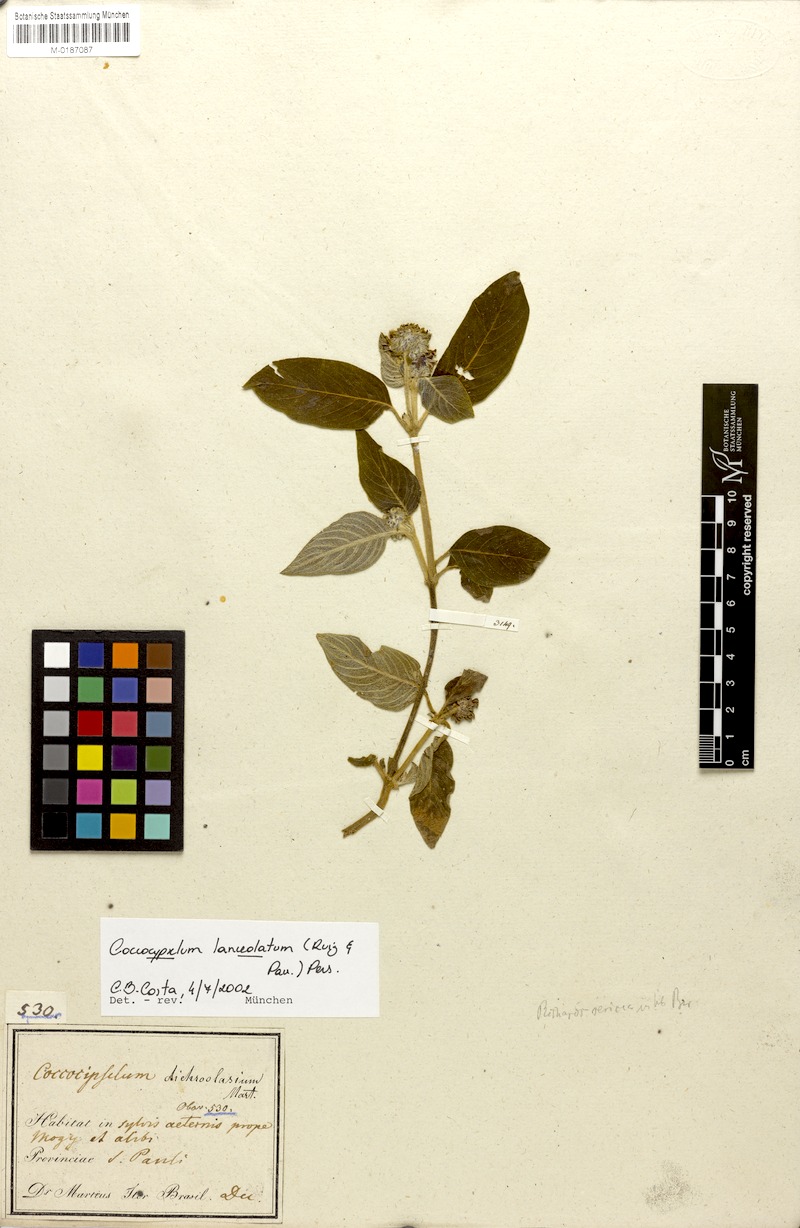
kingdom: Plantae
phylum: Tracheophyta
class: Magnoliopsida
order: Gentianales
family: Rubiaceae
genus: Coccocypselum
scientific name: Coccocypselum lanceolatum
